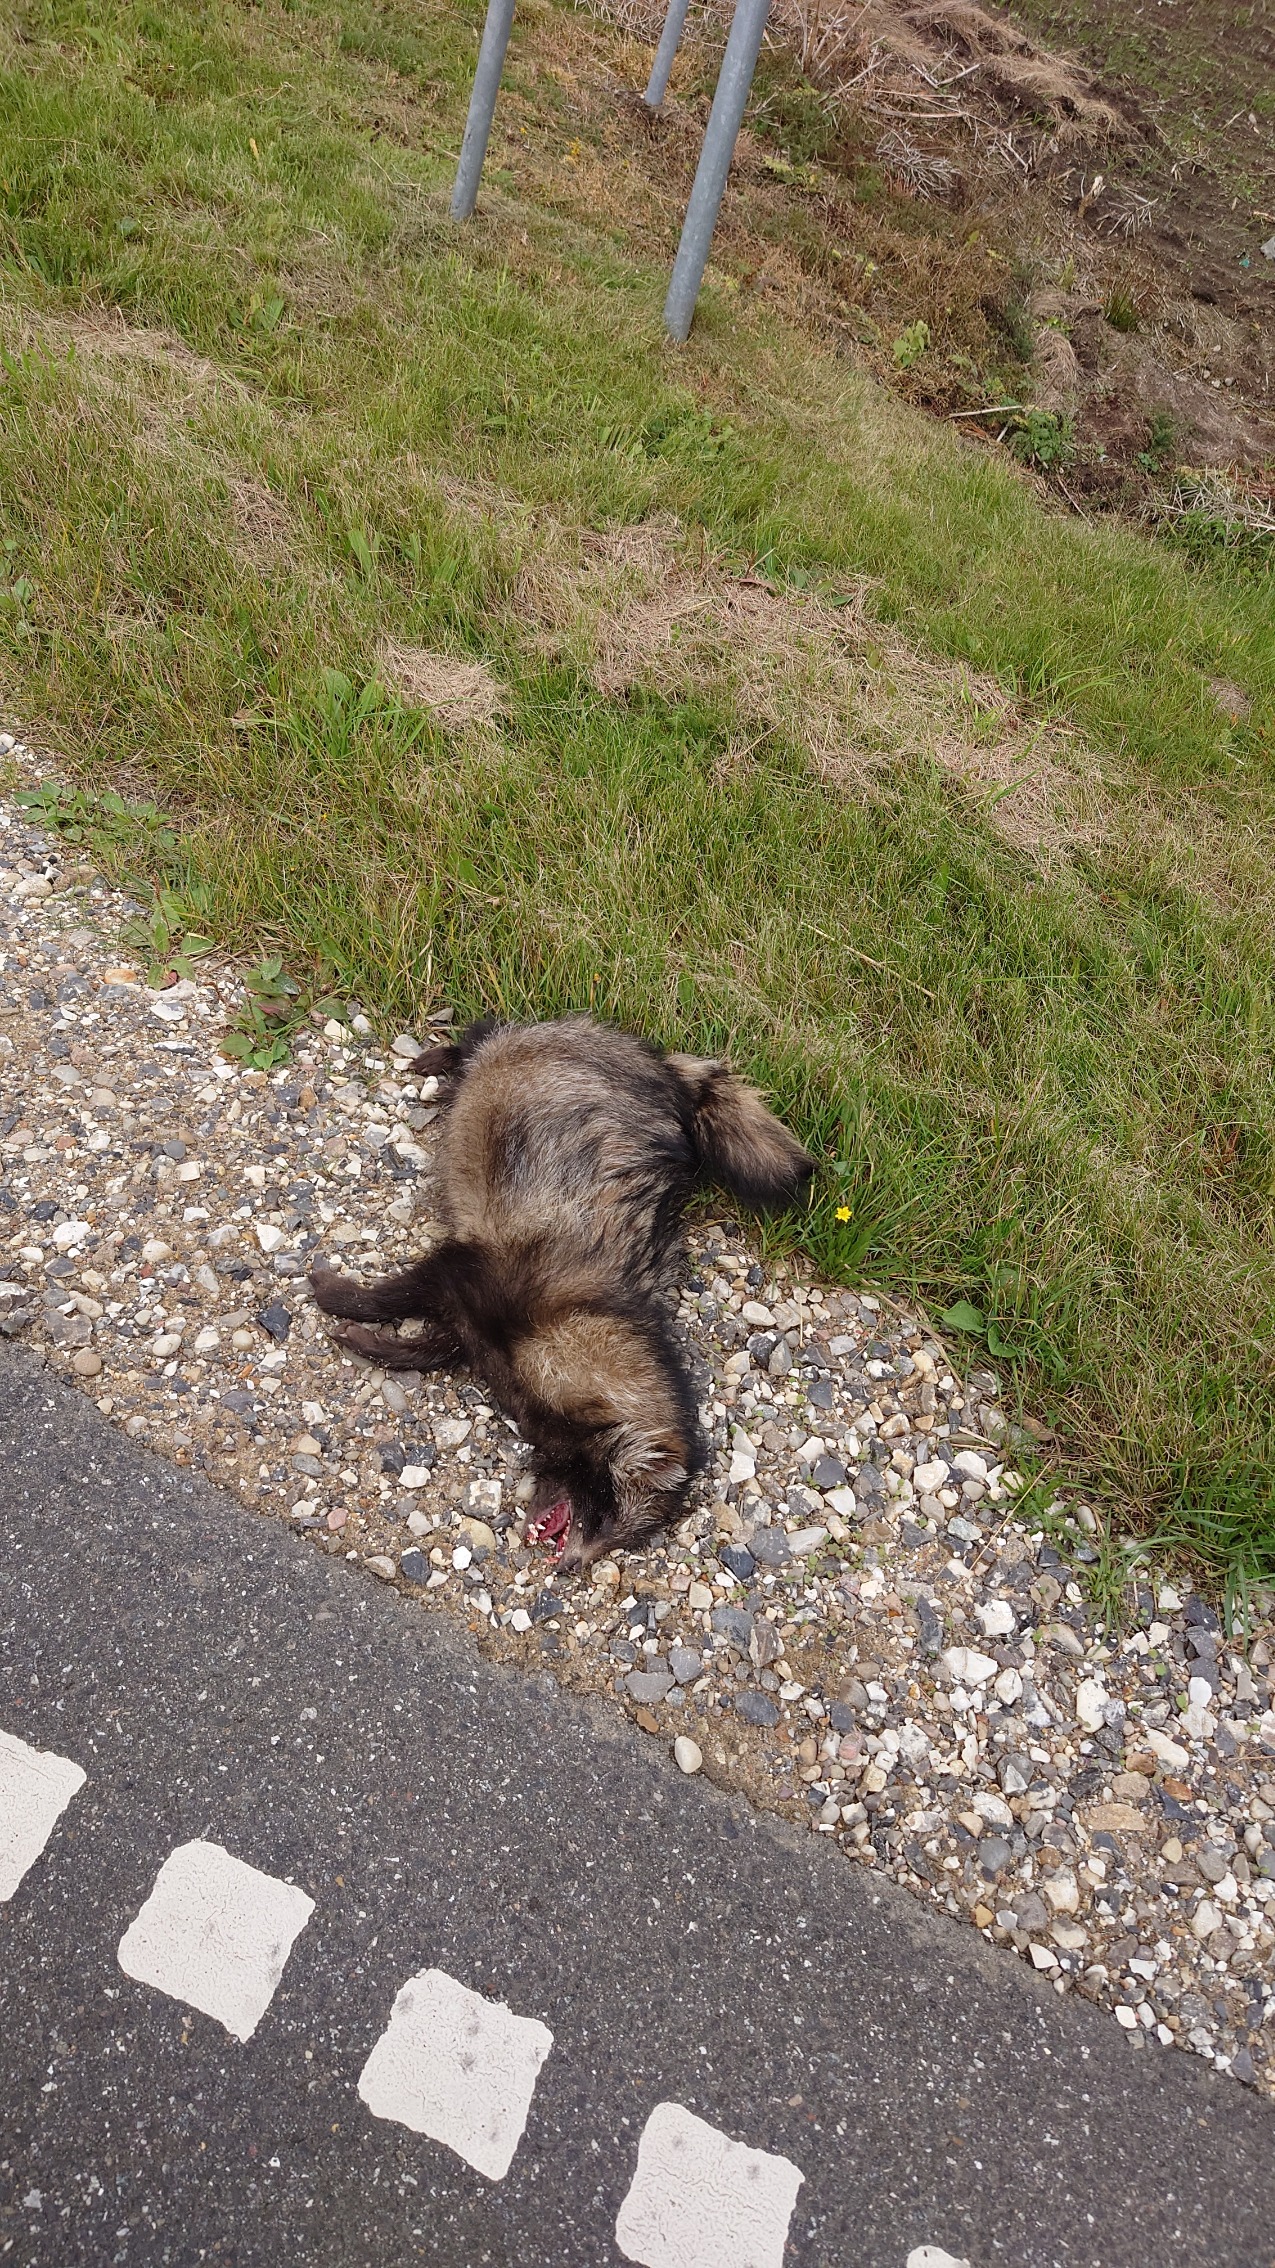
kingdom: Animalia
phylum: Chordata
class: Mammalia
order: Carnivora
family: Canidae
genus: Nyctereutes
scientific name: Nyctereutes procyonoides
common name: Mårhund
